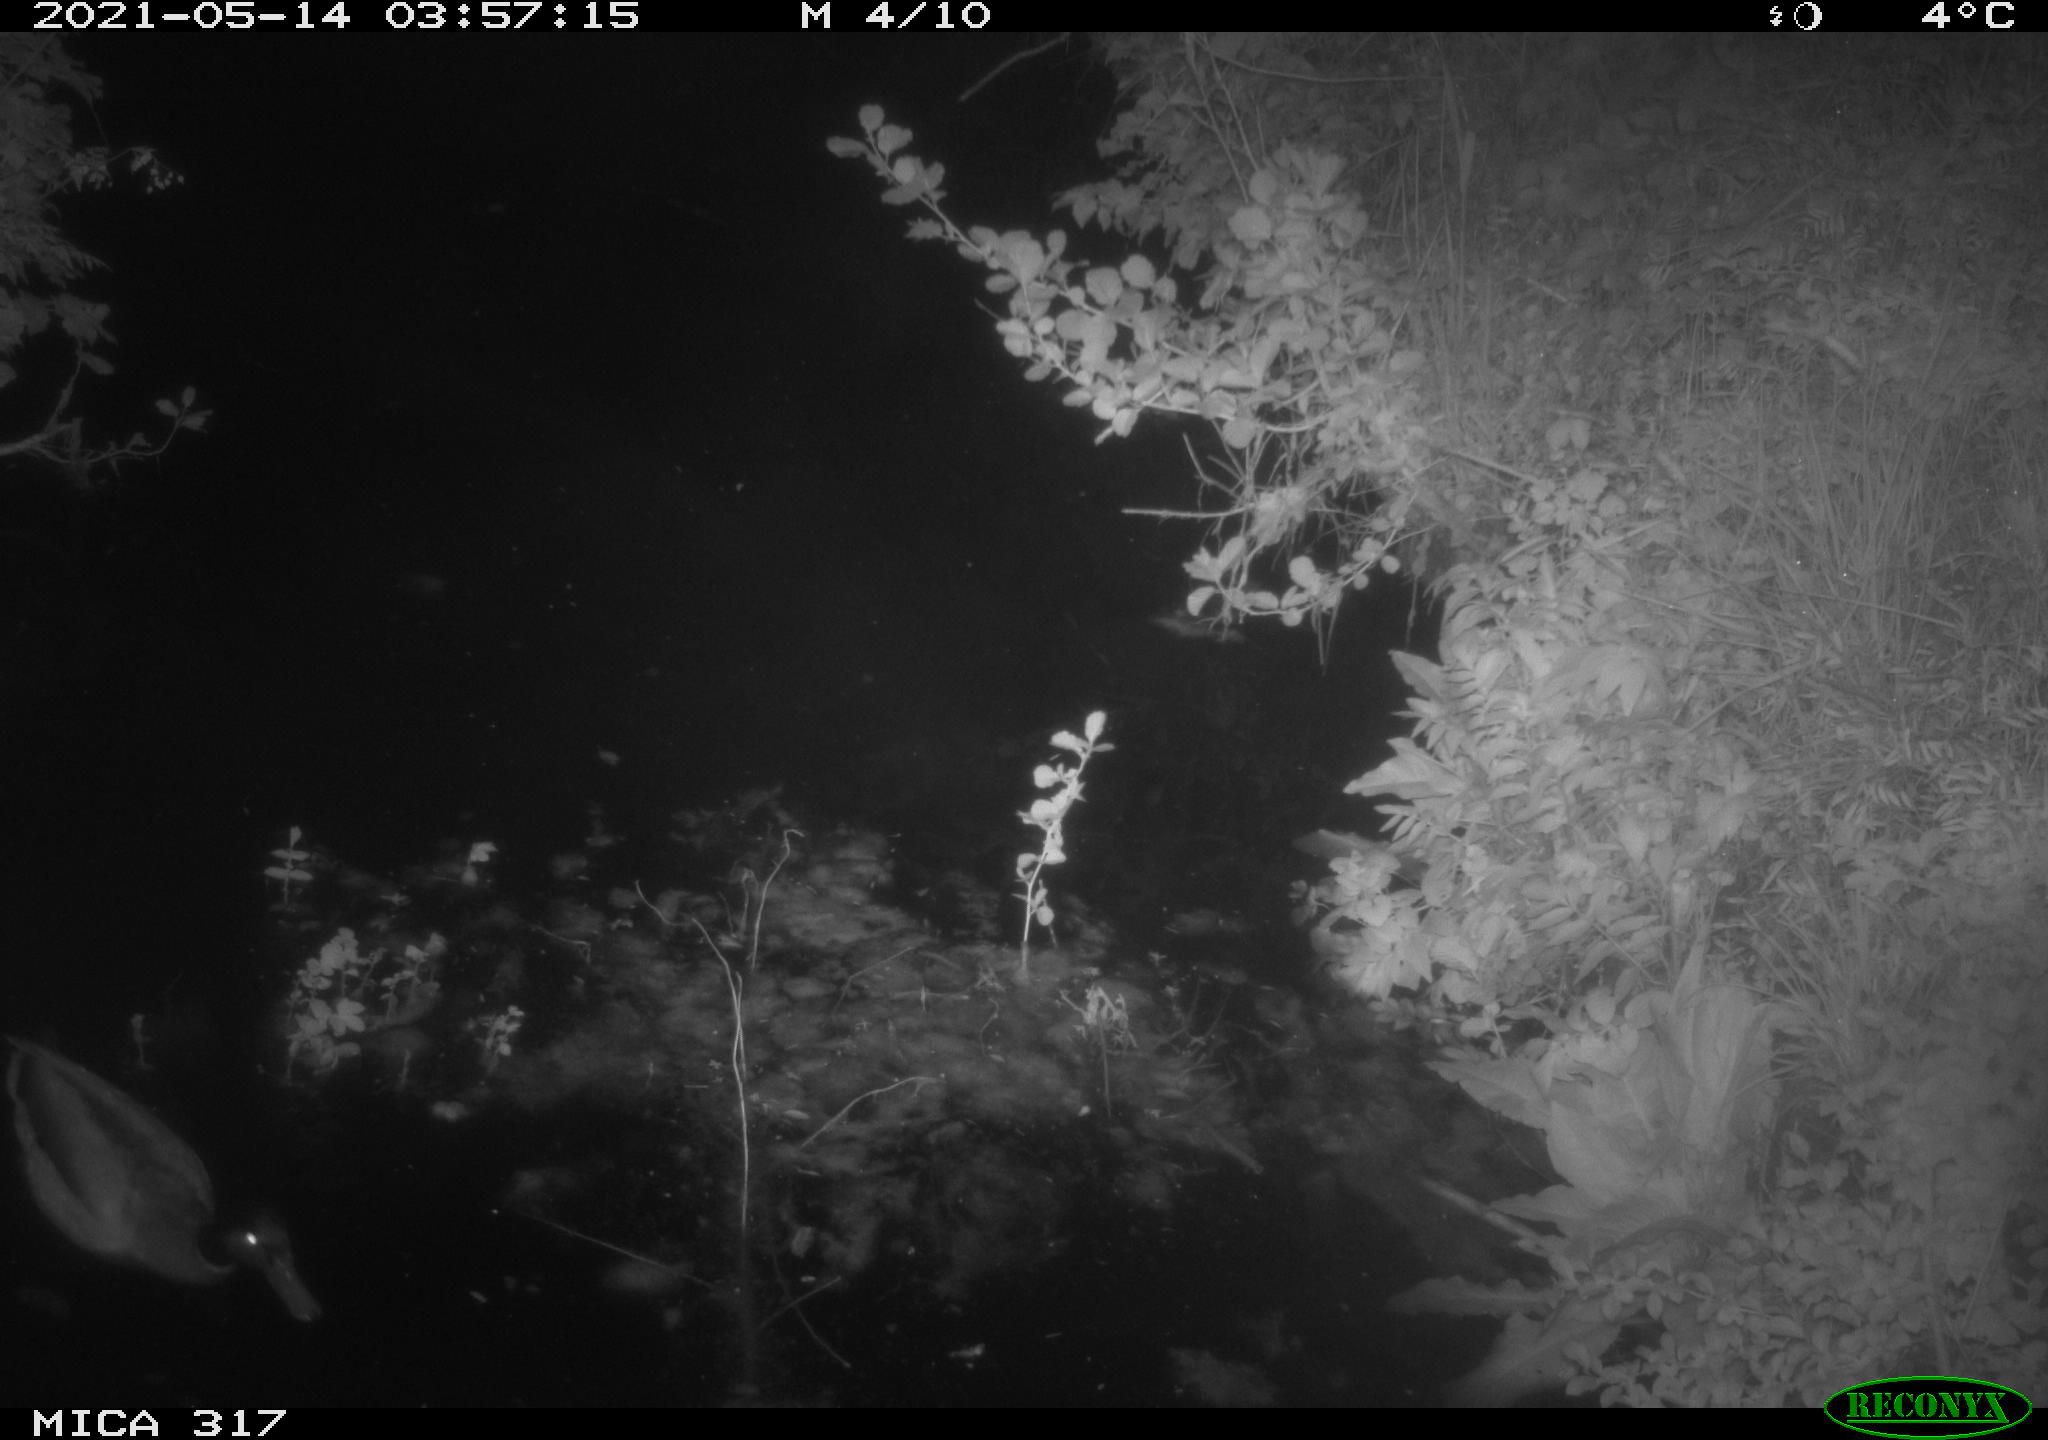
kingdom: Animalia
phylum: Chordata
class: Aves
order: Anseriformes
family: Anatidae
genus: Anas
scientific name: Anas
